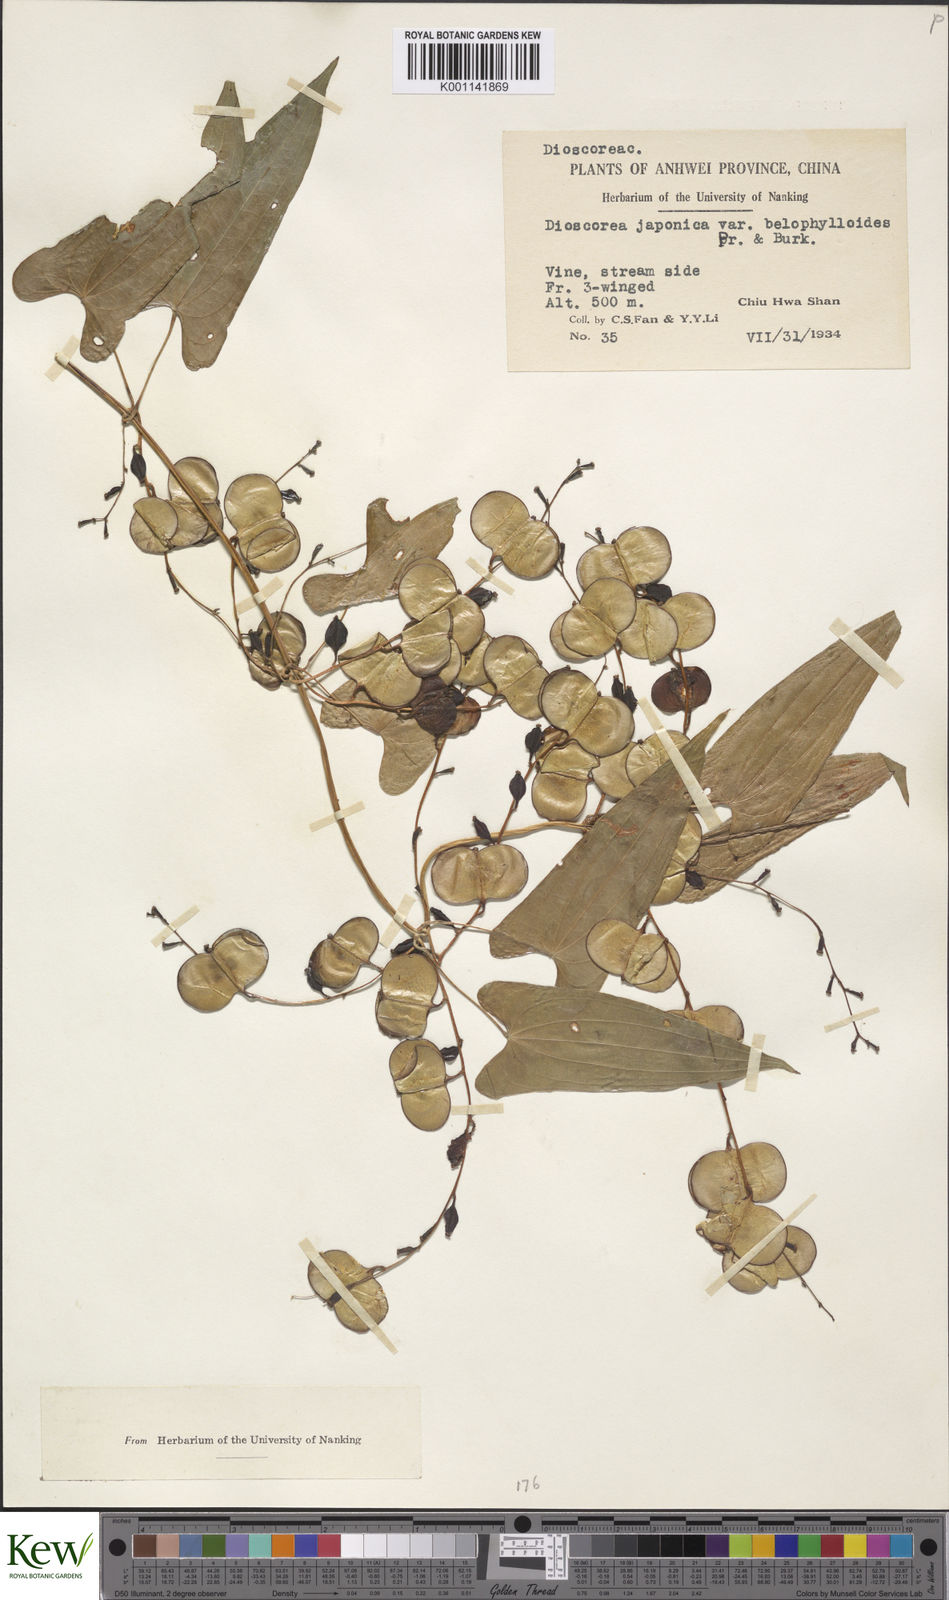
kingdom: Plantae
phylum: Tracheophyta
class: Liliopsida
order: Dioscoreales
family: Dioscoreaceae
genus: Dioscorea
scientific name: Dioscorea japonica
